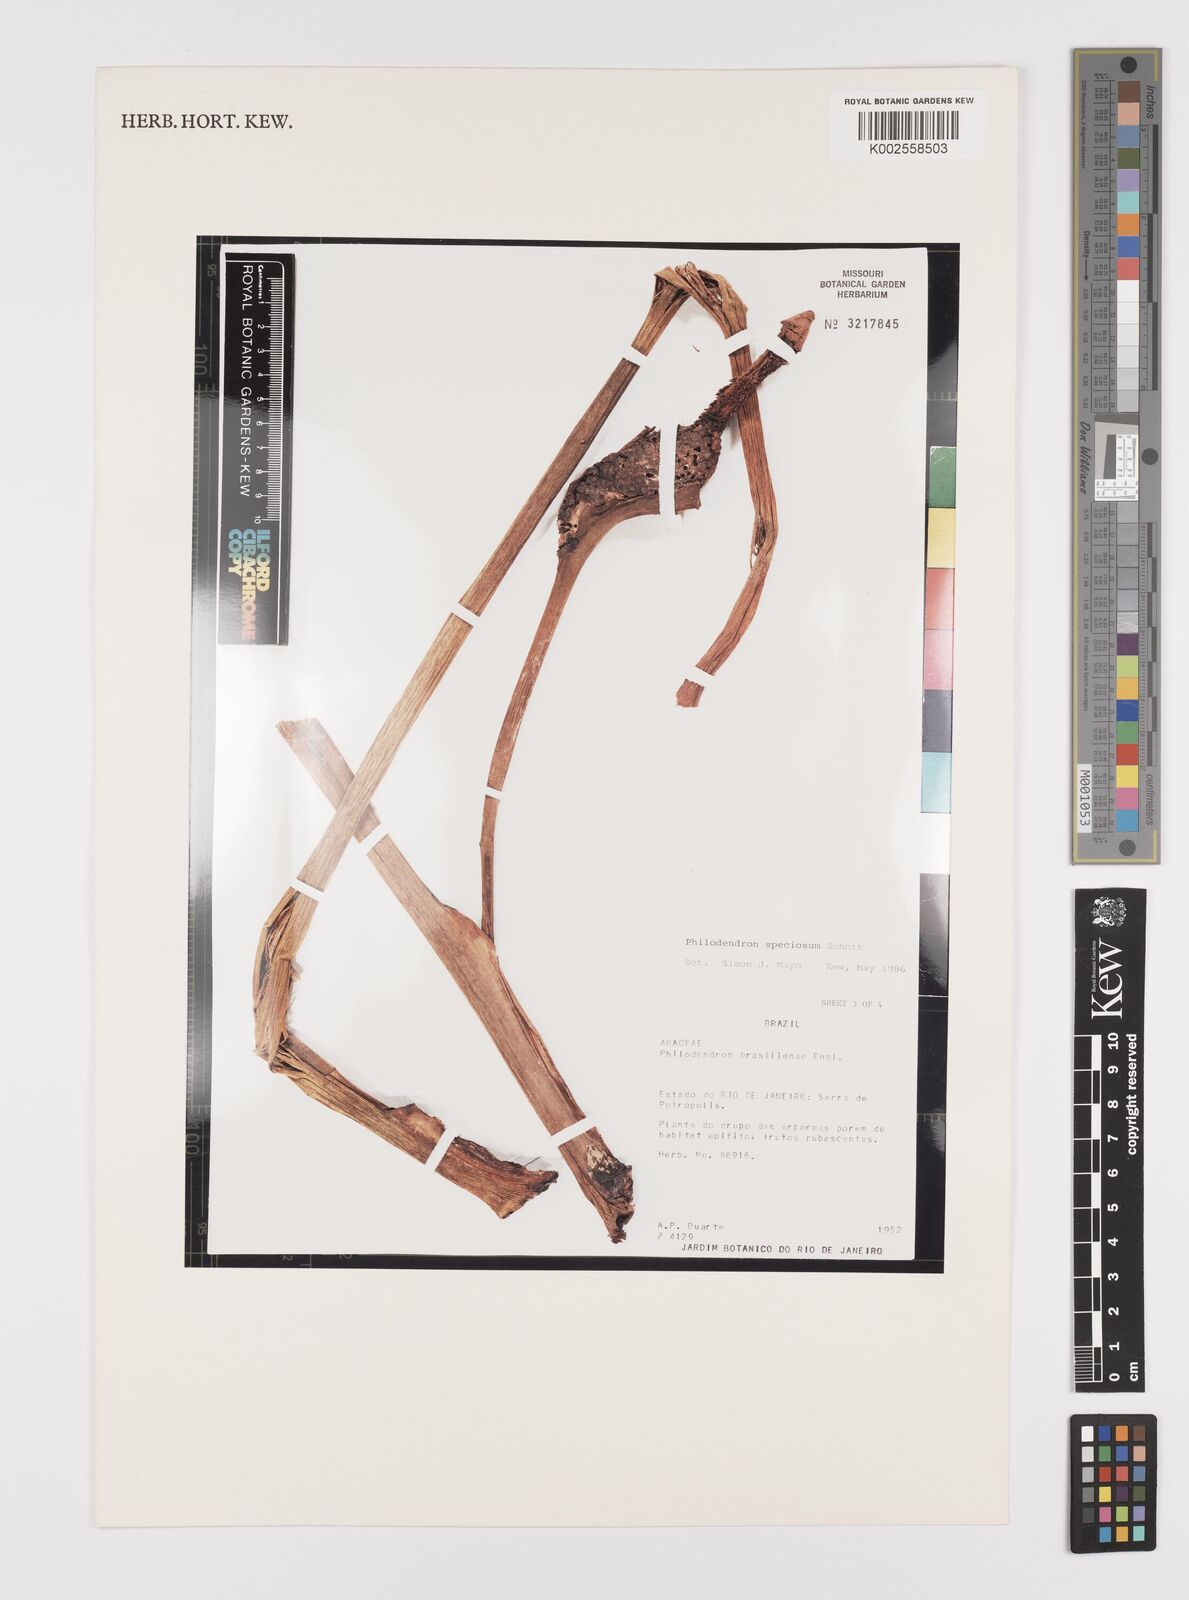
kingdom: Plantae
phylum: Tracheophyta
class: Liliopsida
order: Alismatales
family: Araceae
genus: Thaumatophyllum
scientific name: Thaumatophyllum speciosum
